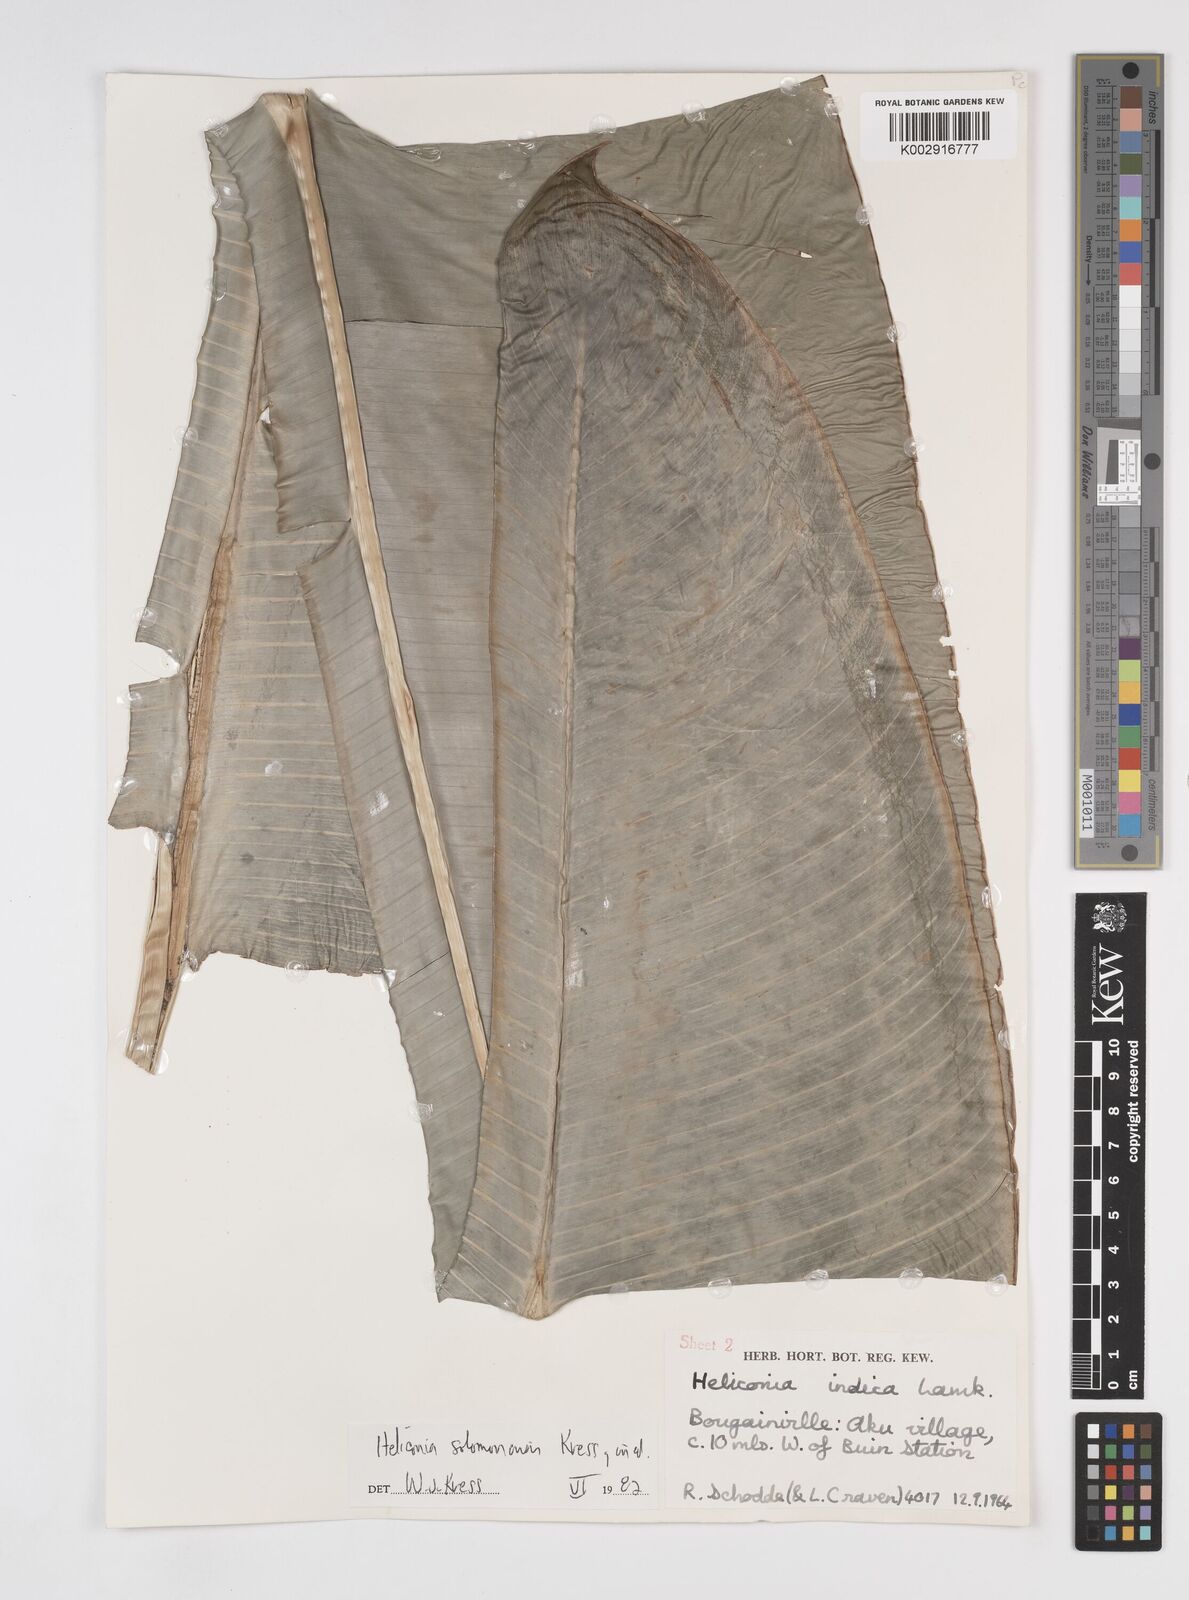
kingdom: Plantae
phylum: Tracheophyta
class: Liliopsida
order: Zingiberales
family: Heliconiaceae
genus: Heliconia
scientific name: Heliconia solomonensis
